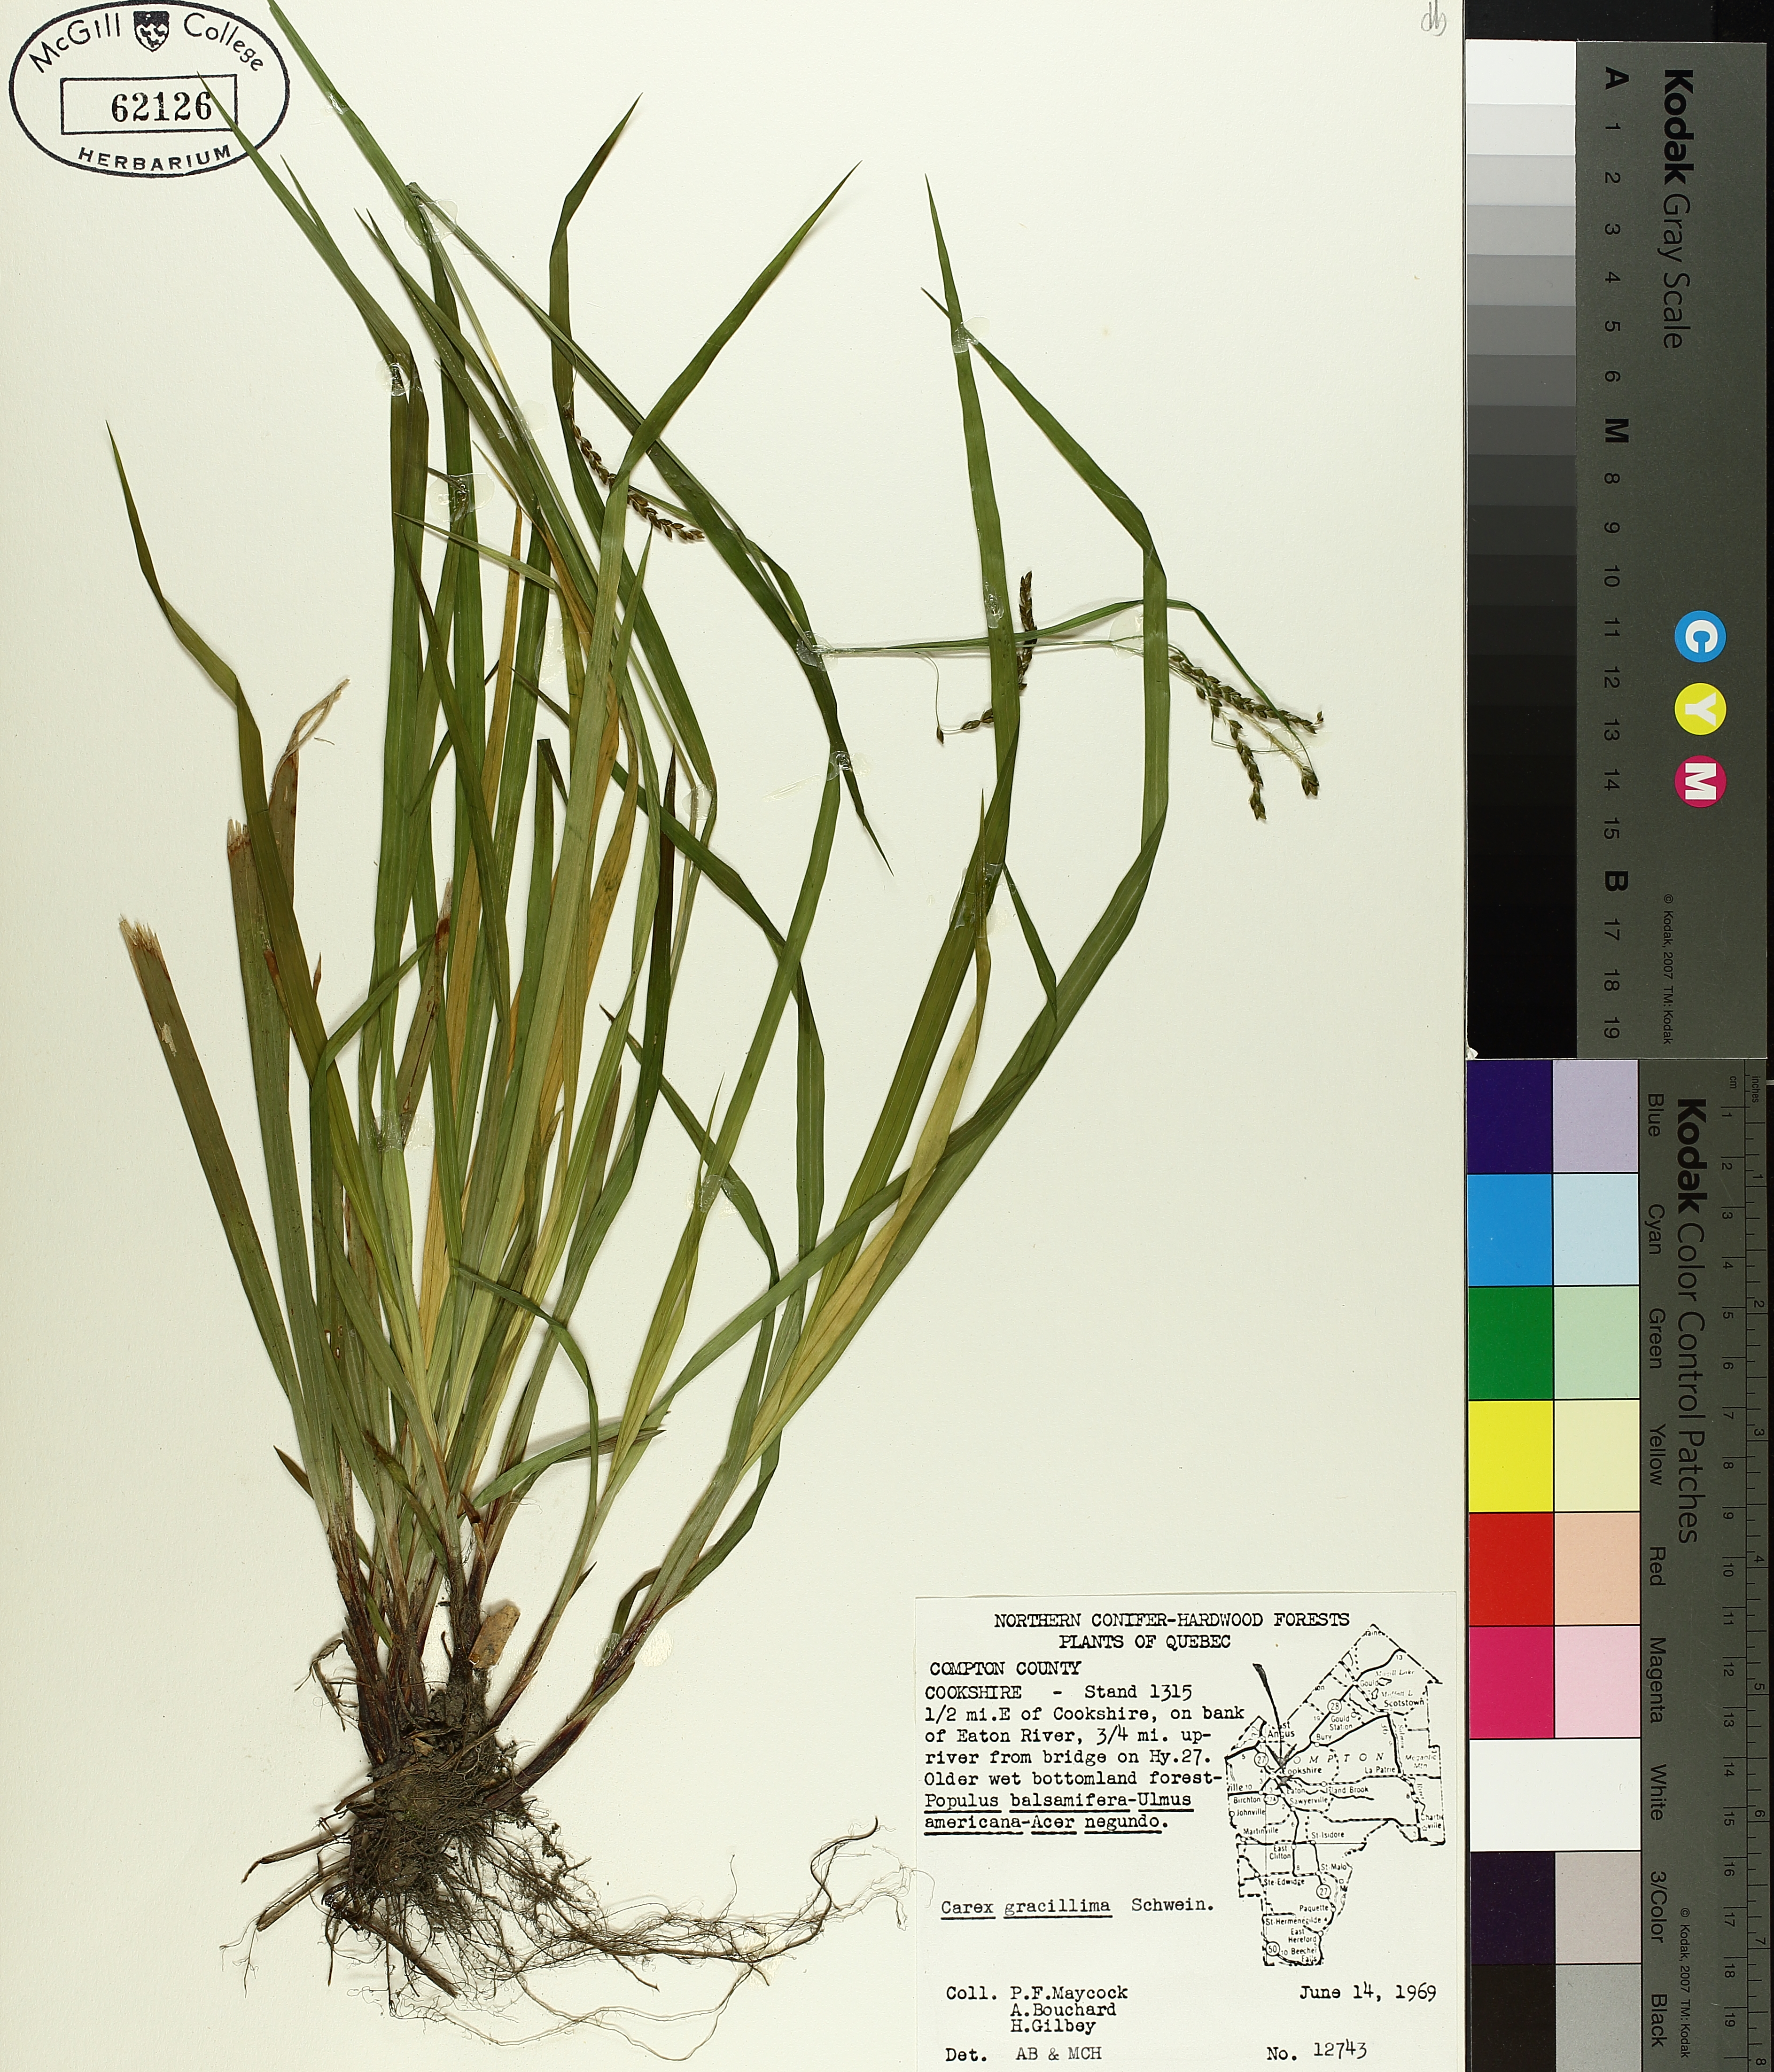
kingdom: Plantae
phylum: Tracheophyta
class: Liliopsida
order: Poales
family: Cyperaceae
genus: Carex
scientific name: Carex gracillima
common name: Graceful sedge
